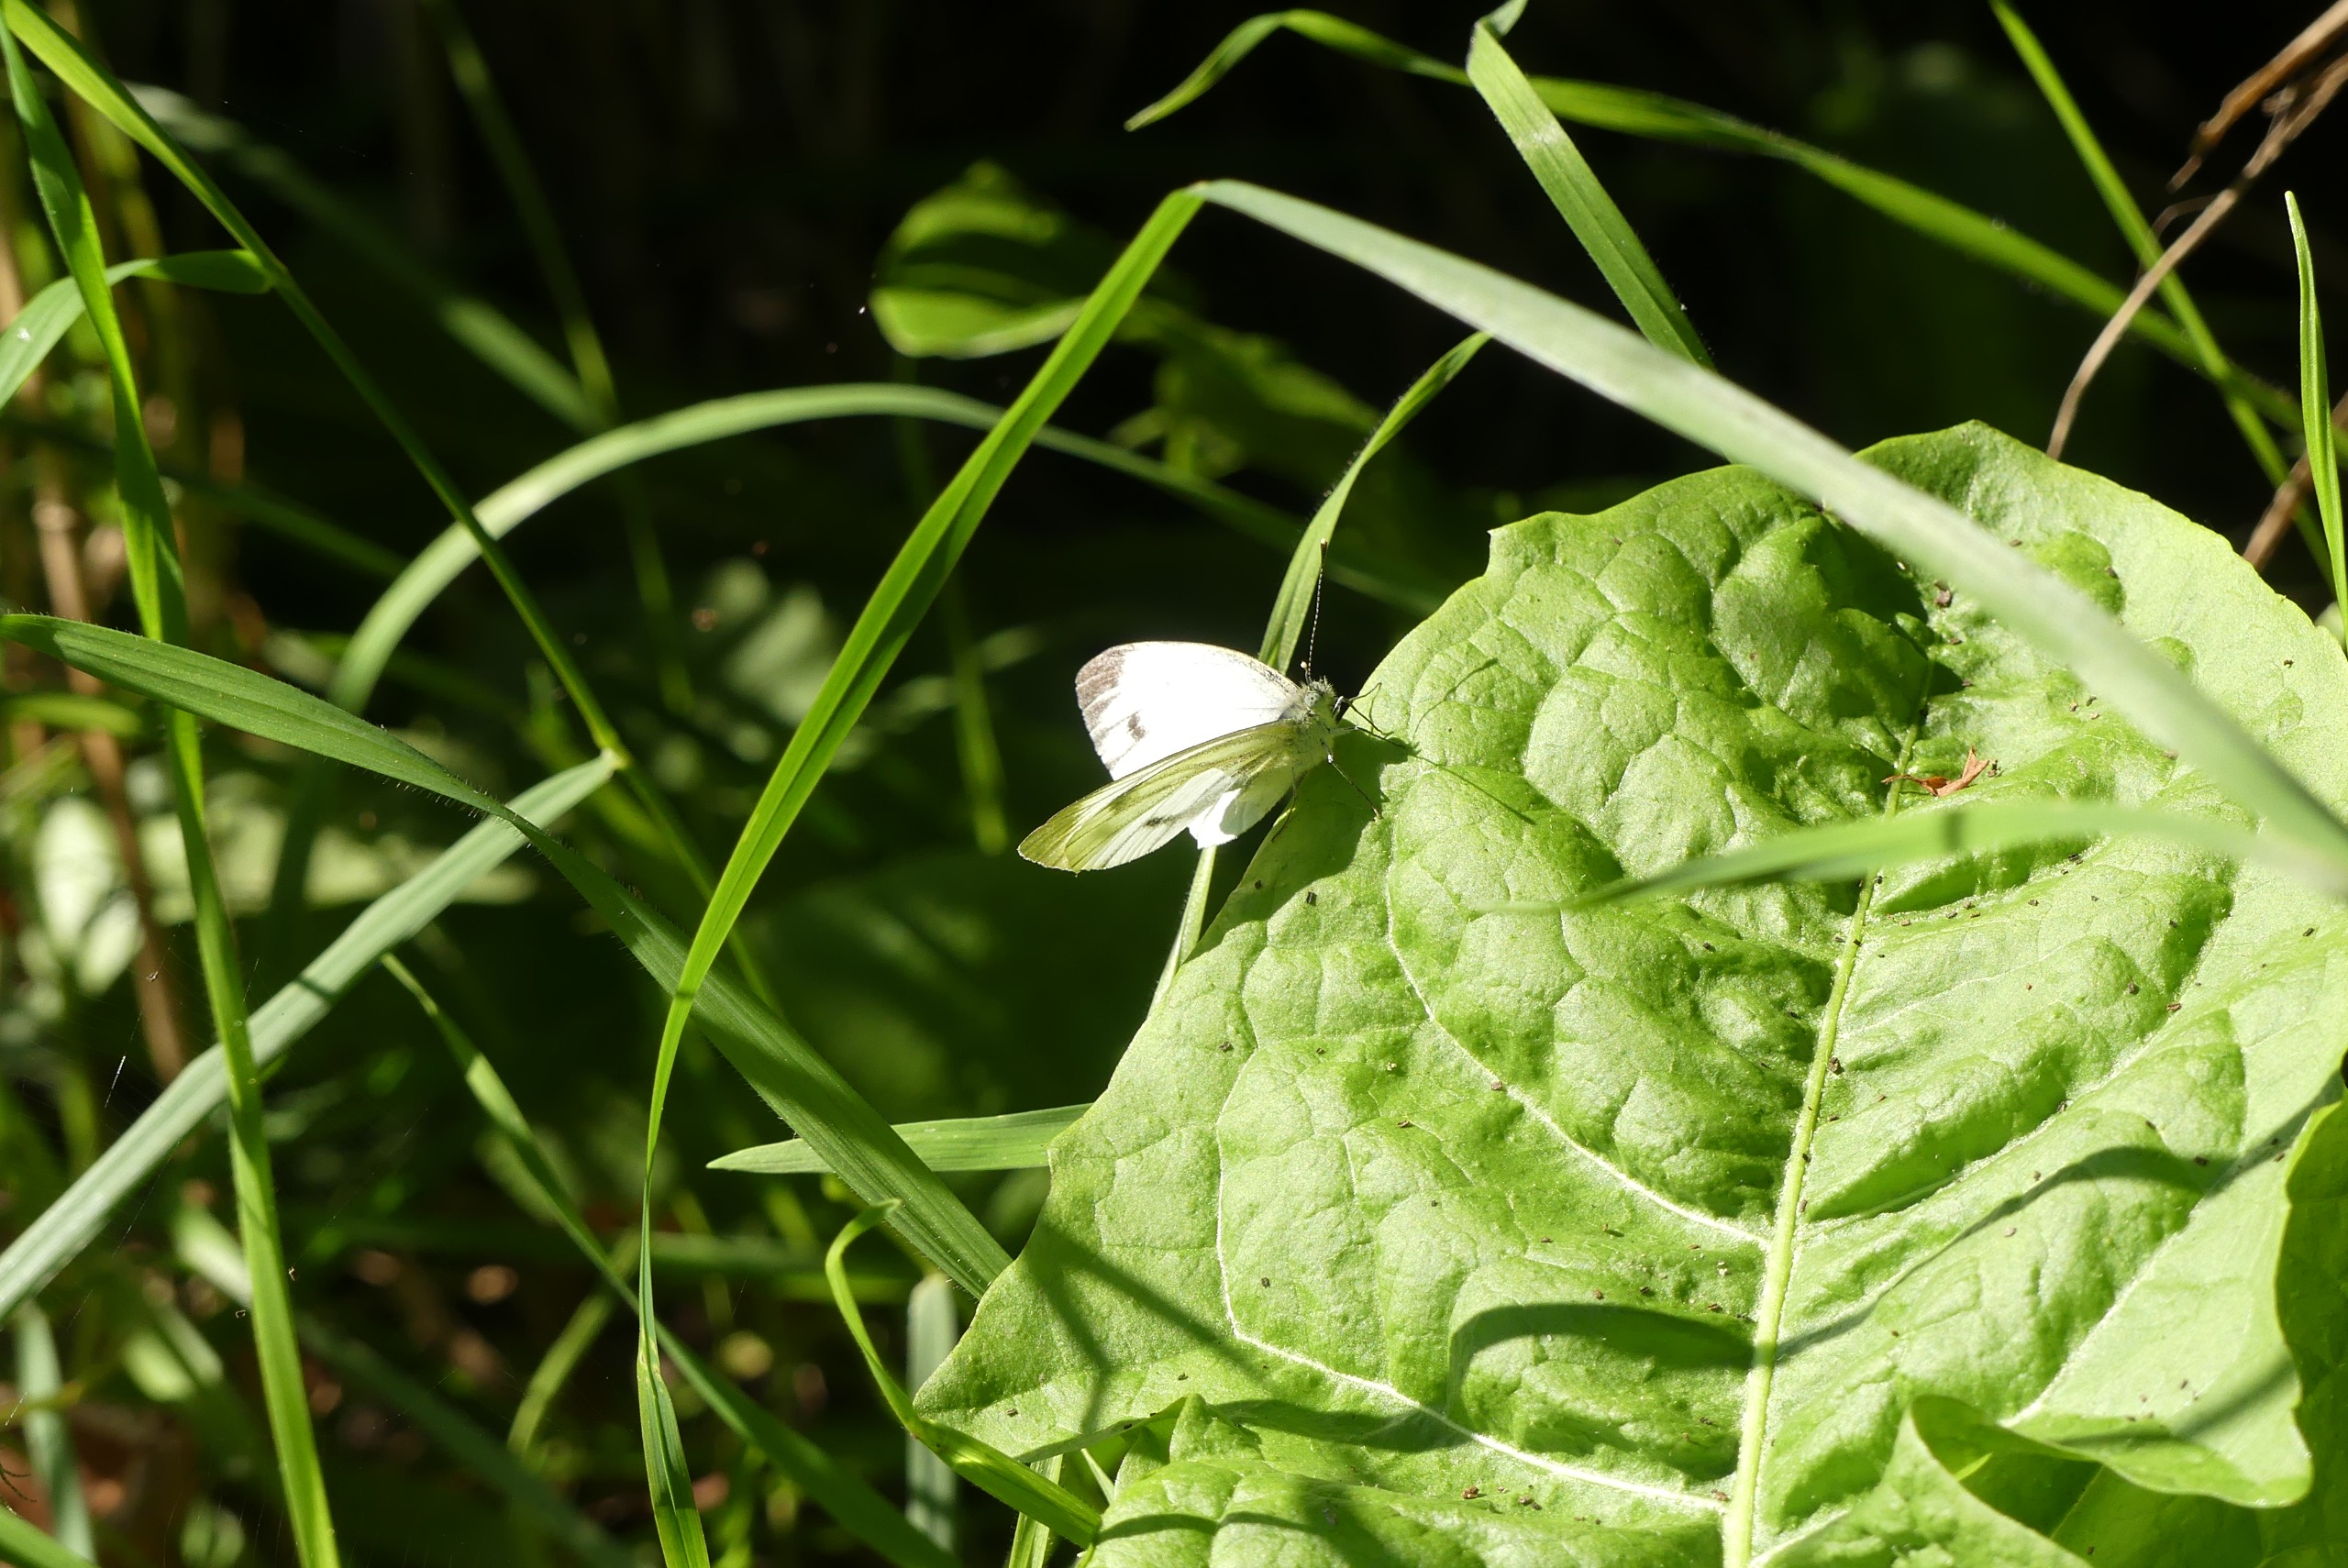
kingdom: Animalia
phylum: Arthropoda
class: Insecta
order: Lepidoptera
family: Pieridae
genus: Pieris
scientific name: Pieris napi
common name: Grønåret kålsommerfugl
